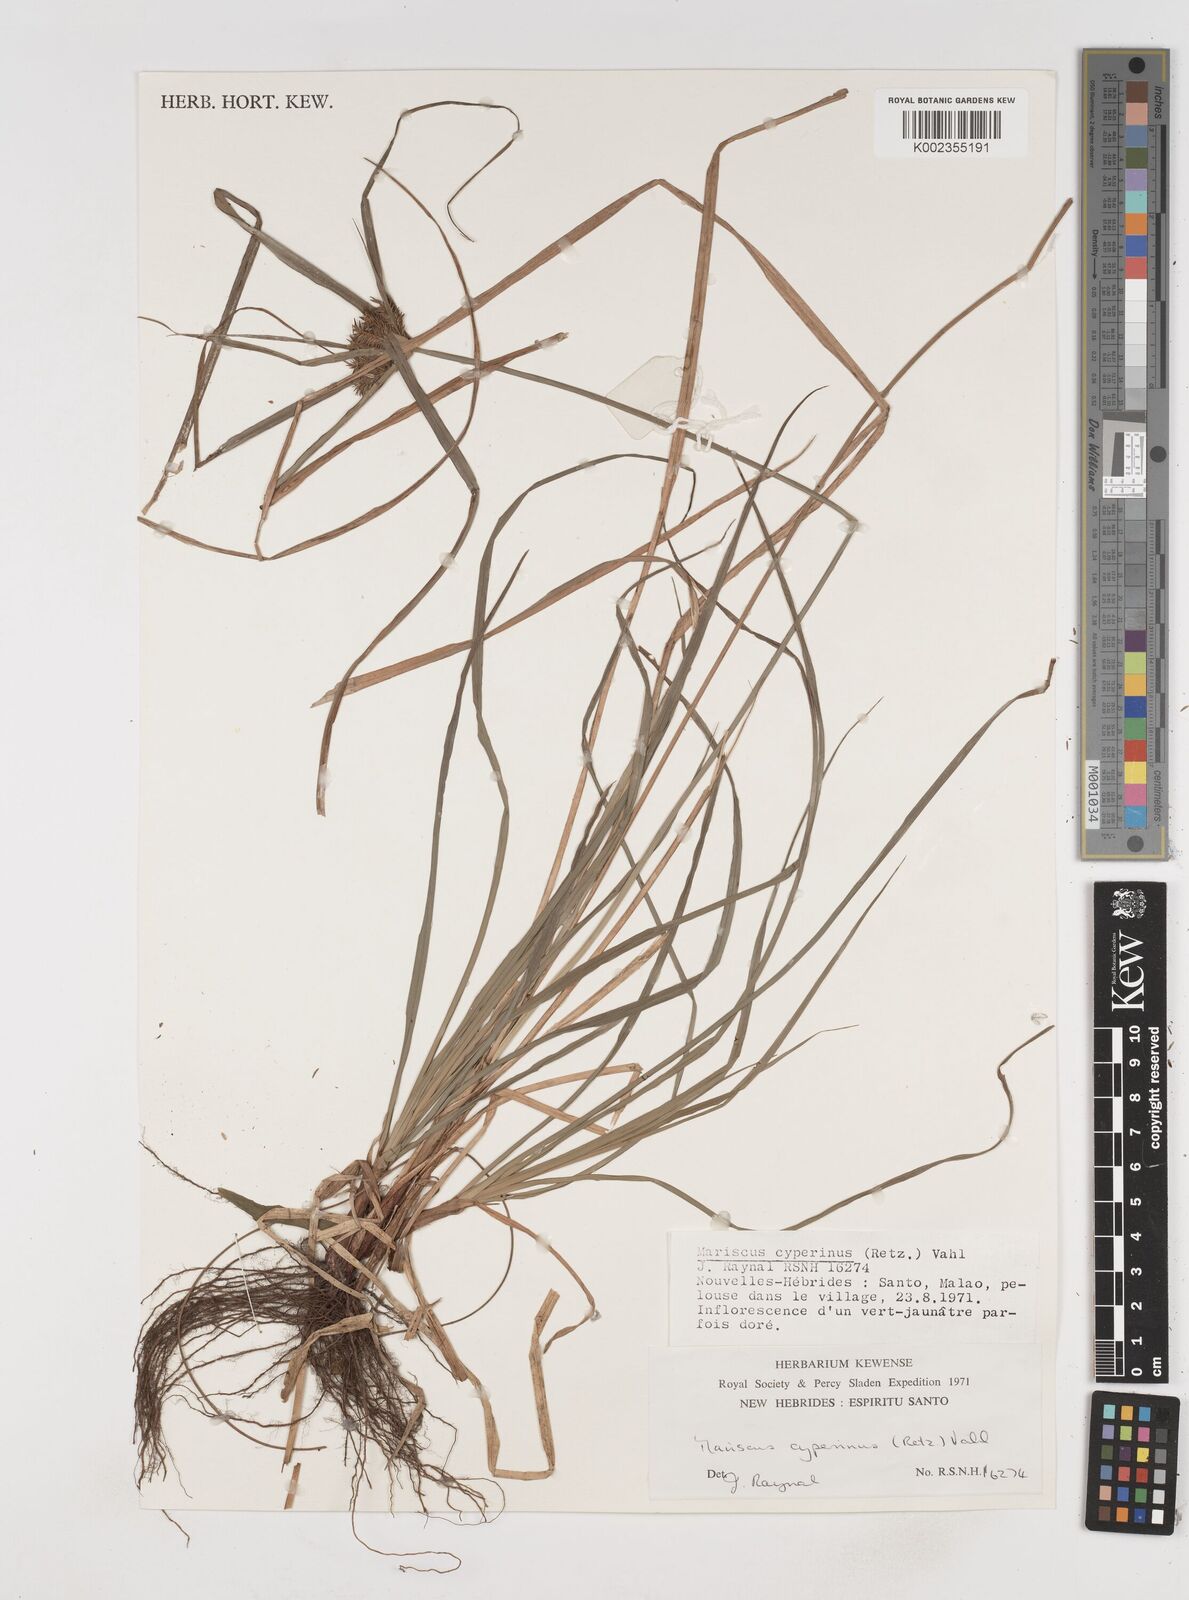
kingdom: Plantae
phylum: Tracheophyta
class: Liliopsida
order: Poales
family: Cyperaceae
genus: Cyperus
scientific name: Cyperus cyperinus
